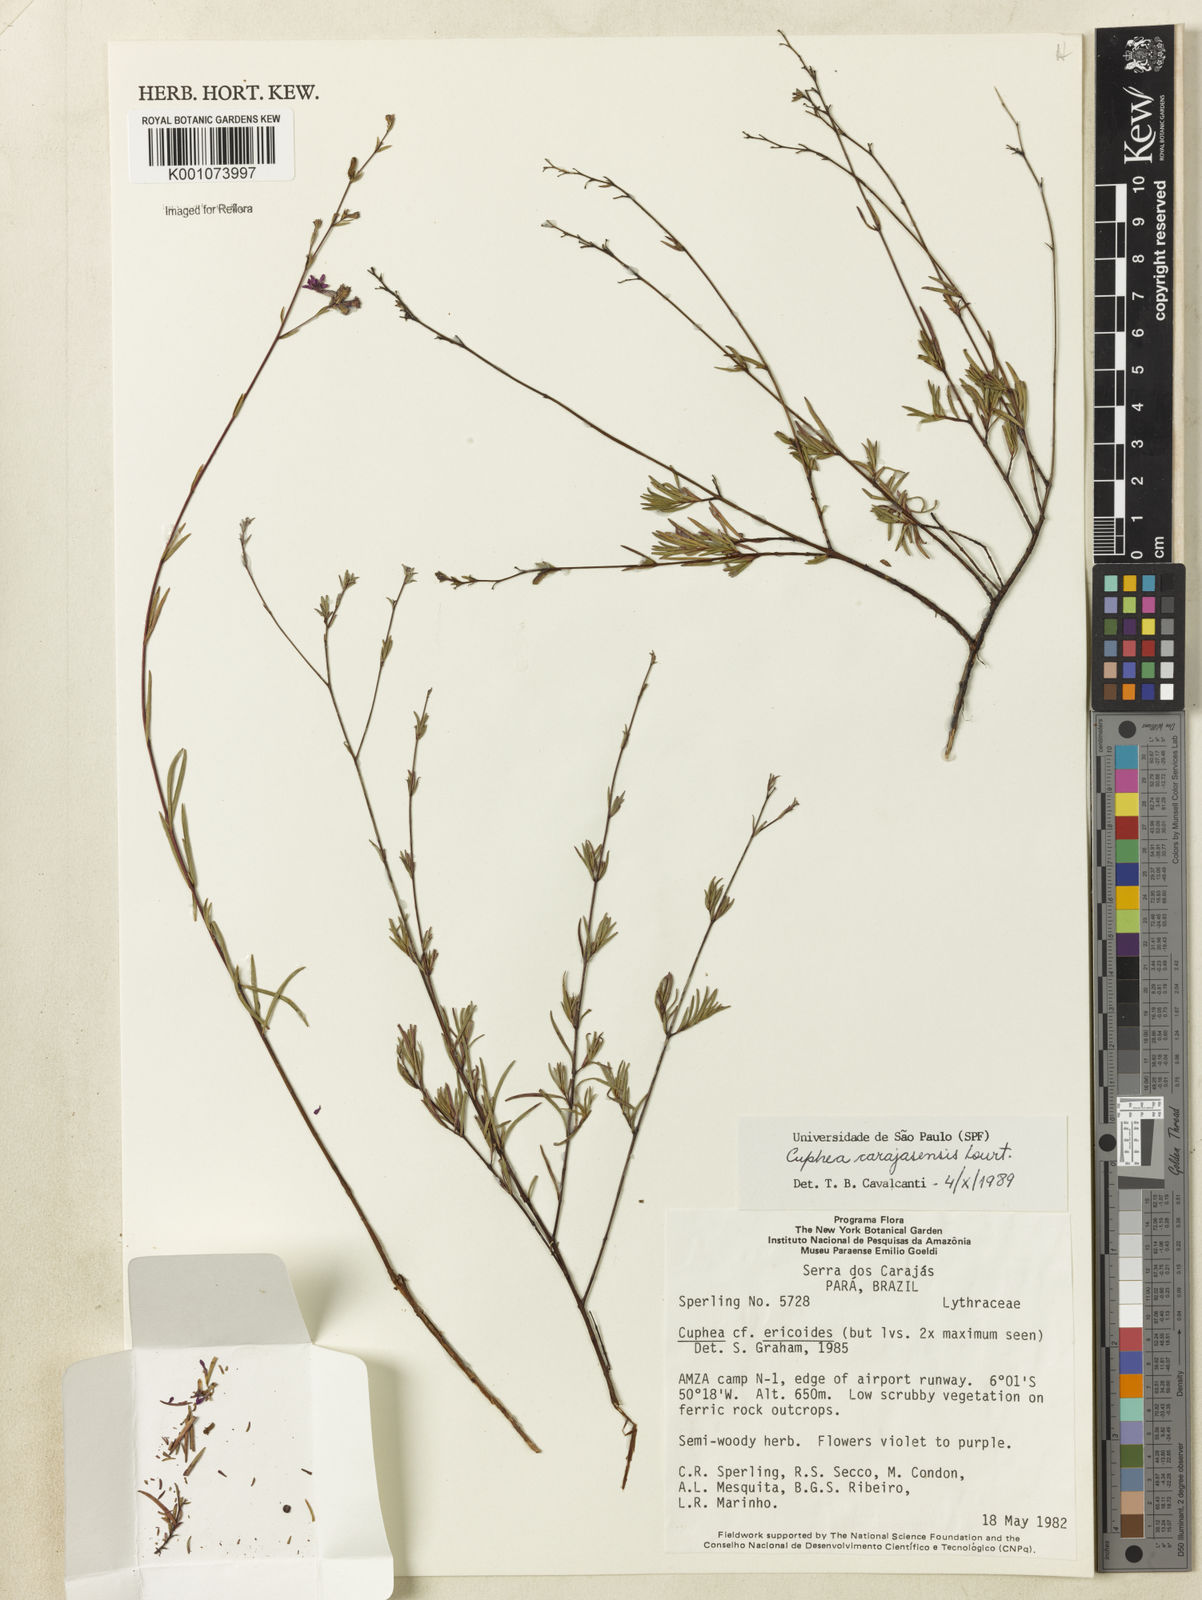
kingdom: Plantae
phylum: Tracheophyta
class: Magnoliopsida
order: Myrtales
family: Lythraceae
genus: Cuphea
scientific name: Cuphea carajasensis
